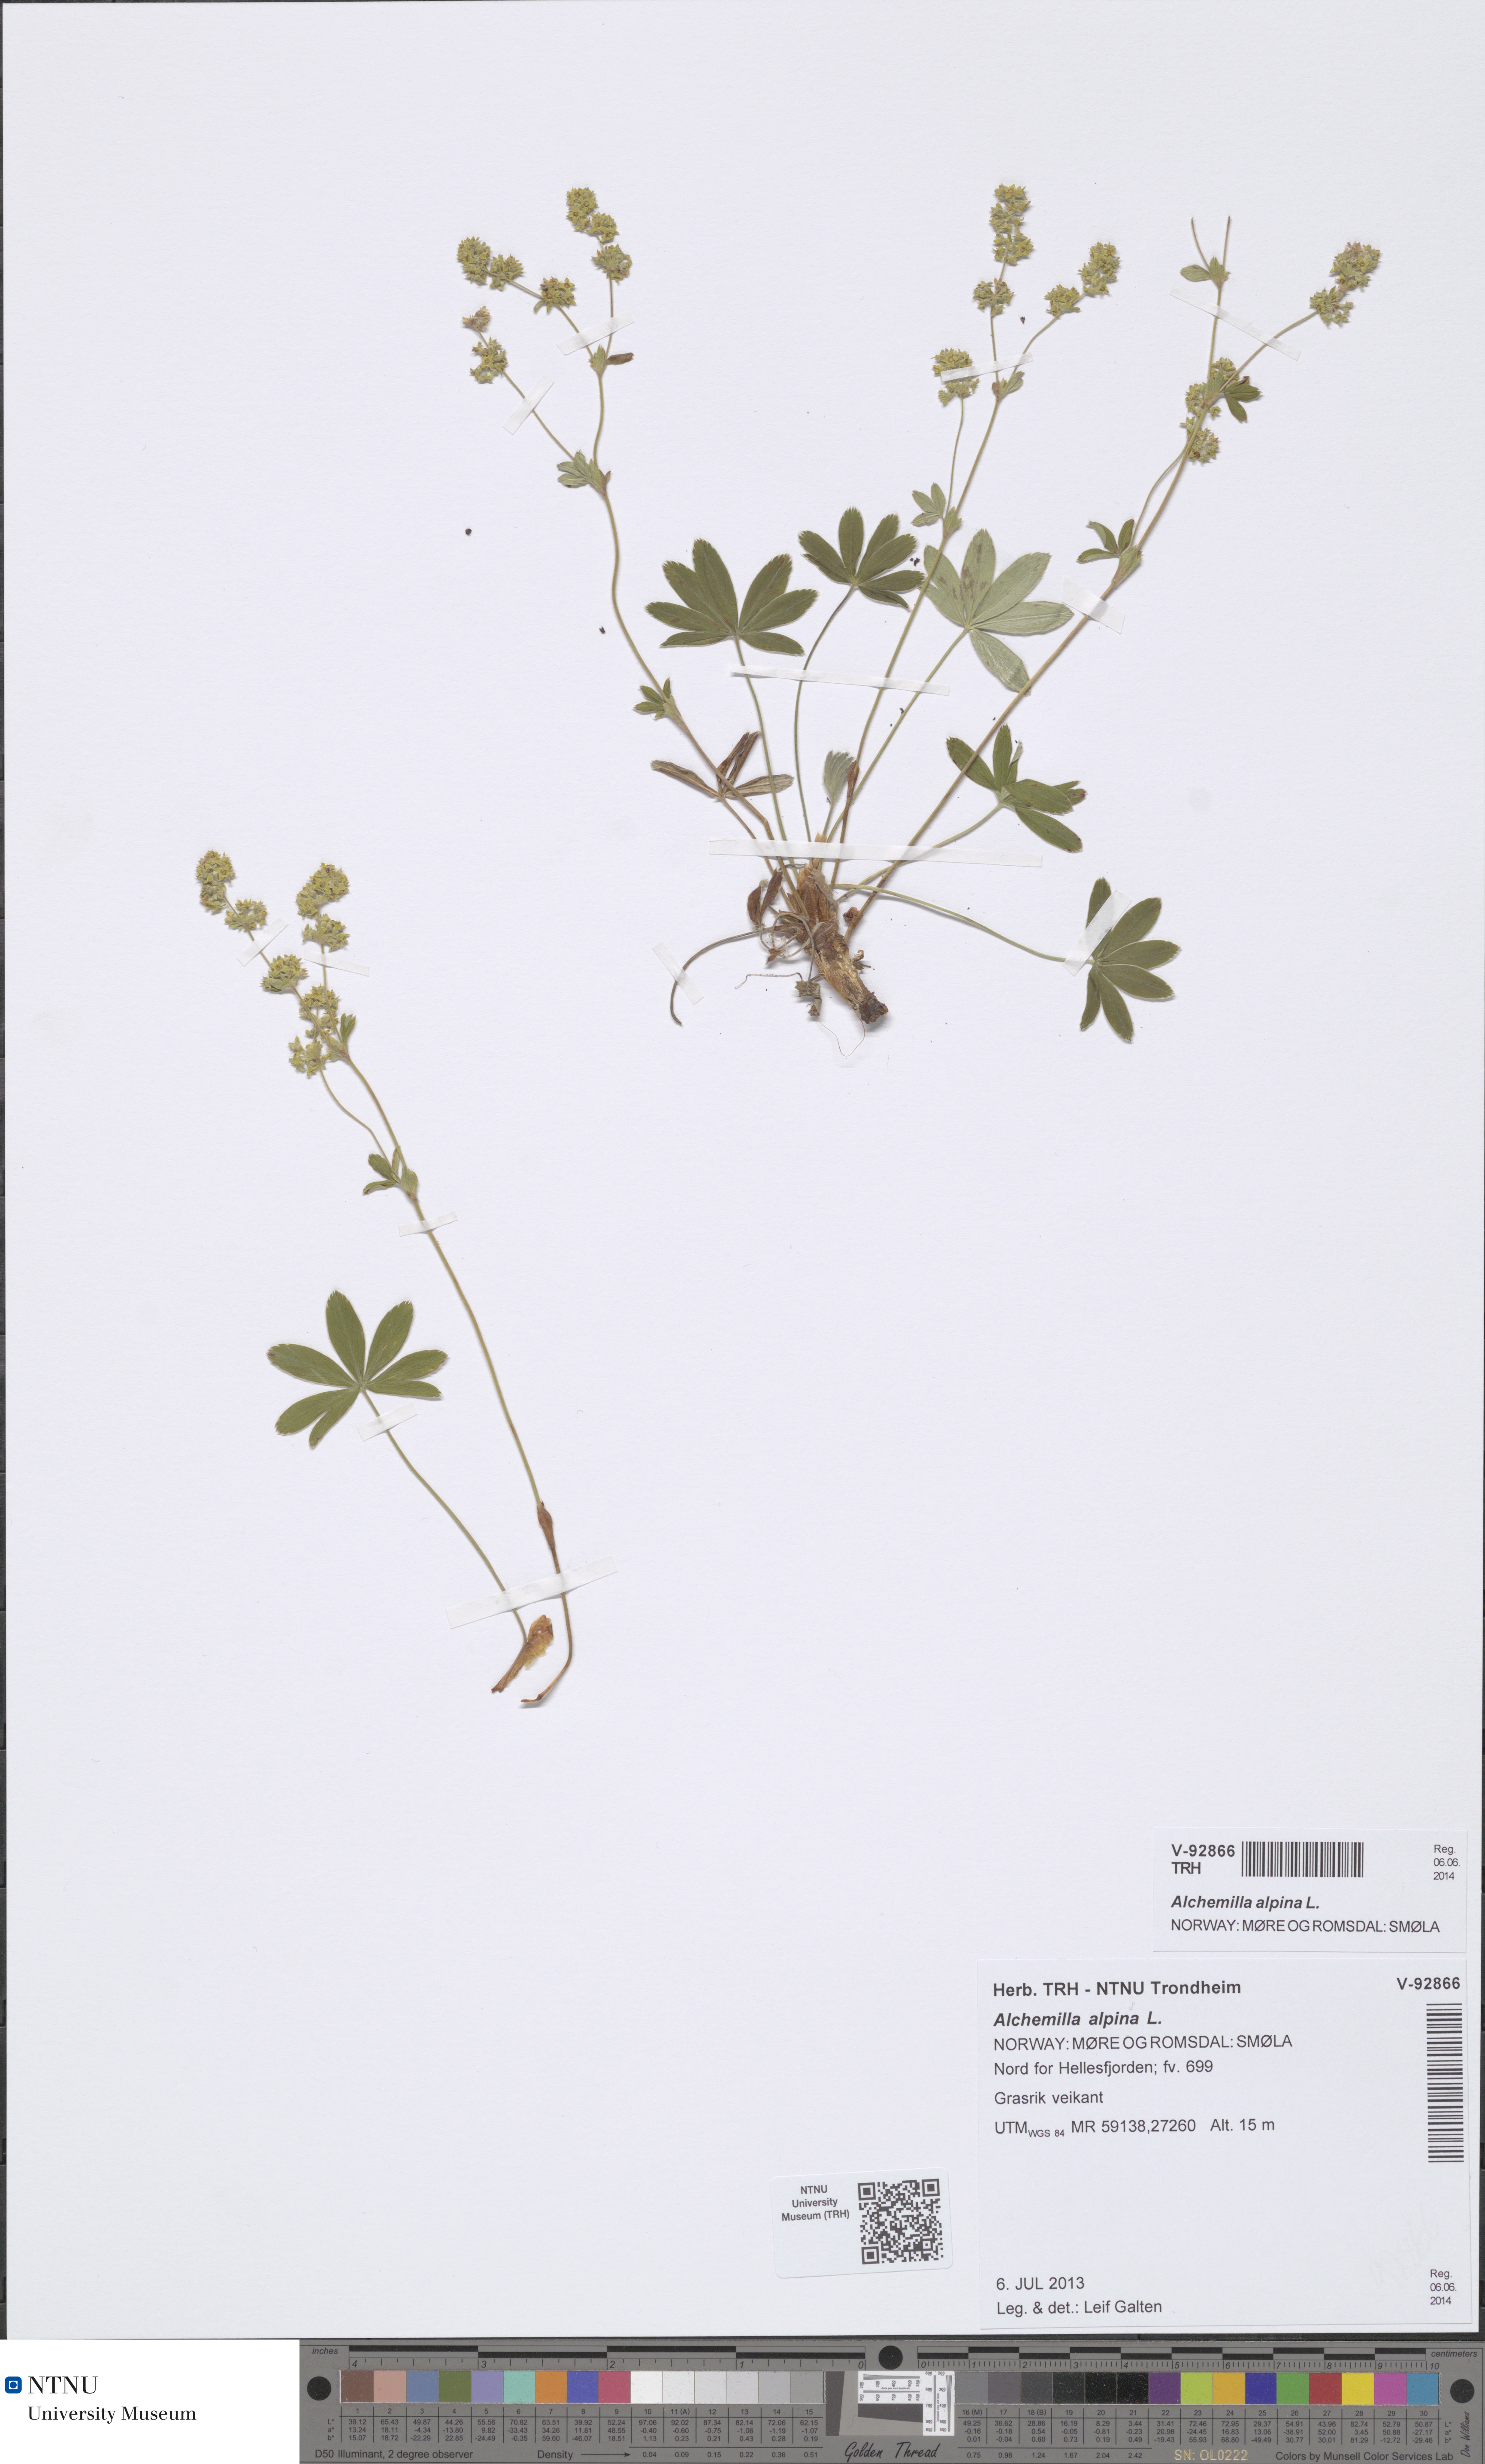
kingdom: Plantae
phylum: Tracheophyta
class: Magnoliopsida
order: Rosales
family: Rosaceae
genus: Alchemilla
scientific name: Alchemilla alpina
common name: Alpine lady's-mantle
